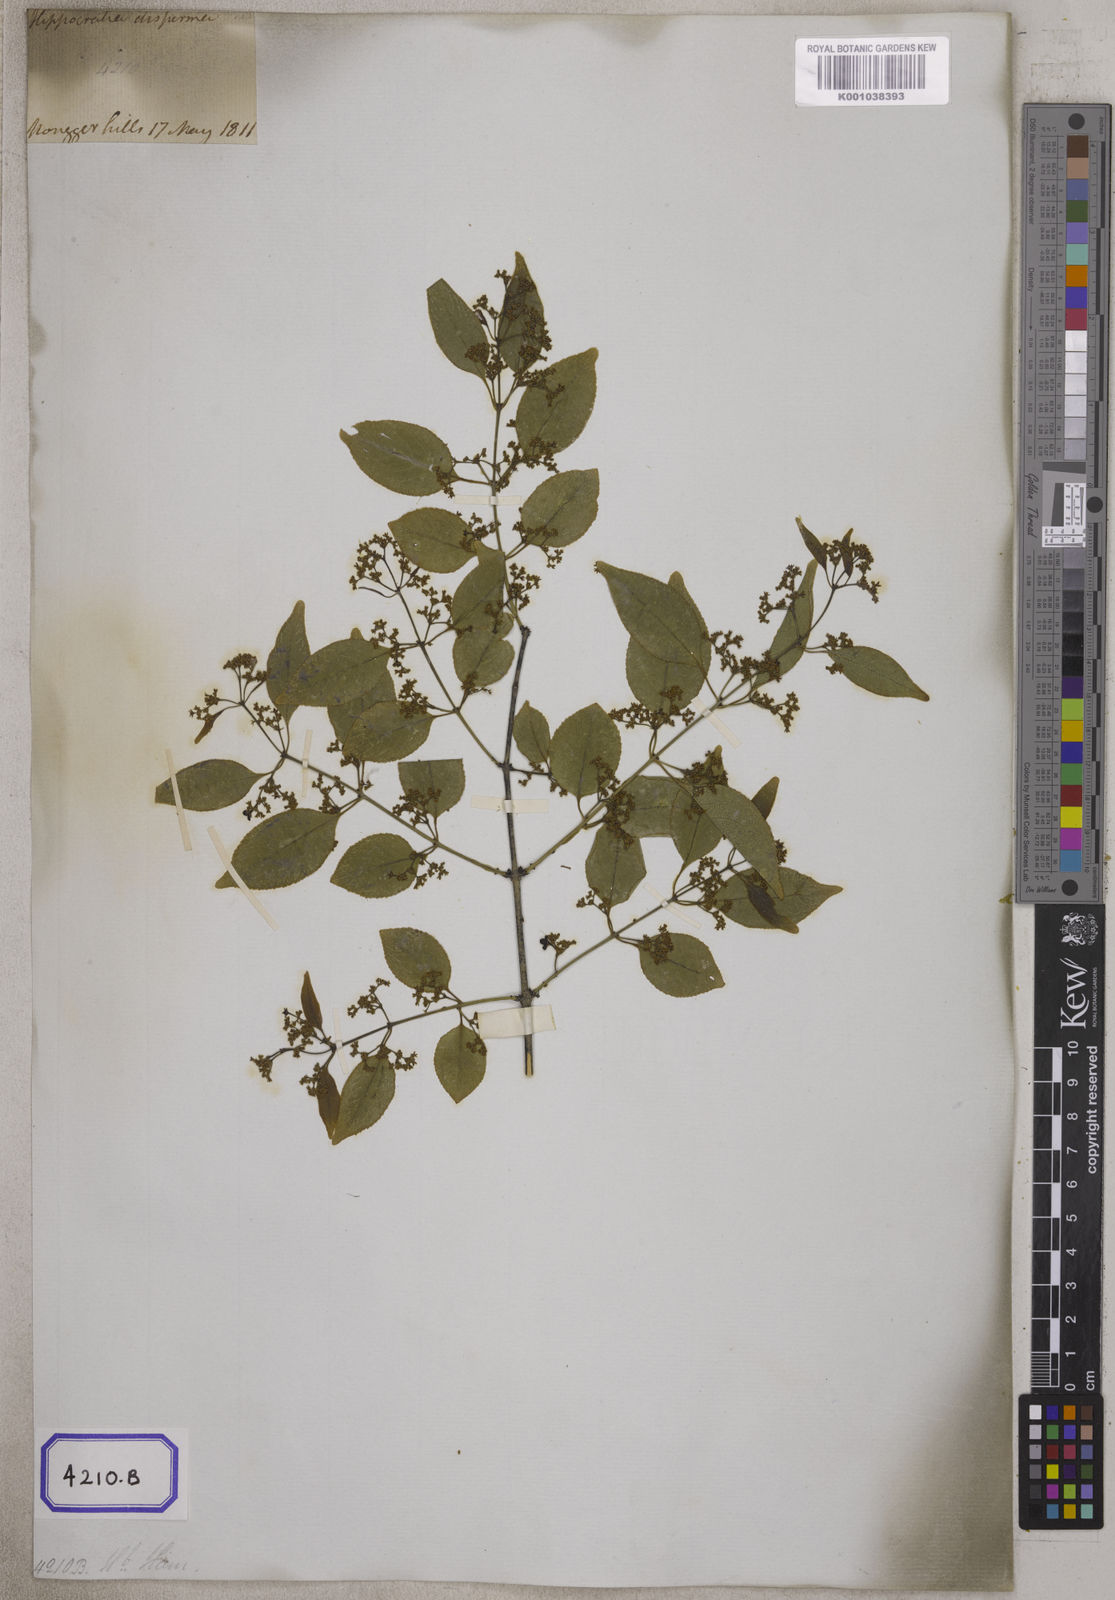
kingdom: Plantae
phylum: Tracheophyta
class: Magnoliopsida
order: Celastrales
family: Celastraceae
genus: Reissantia
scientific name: Reissantia indica
